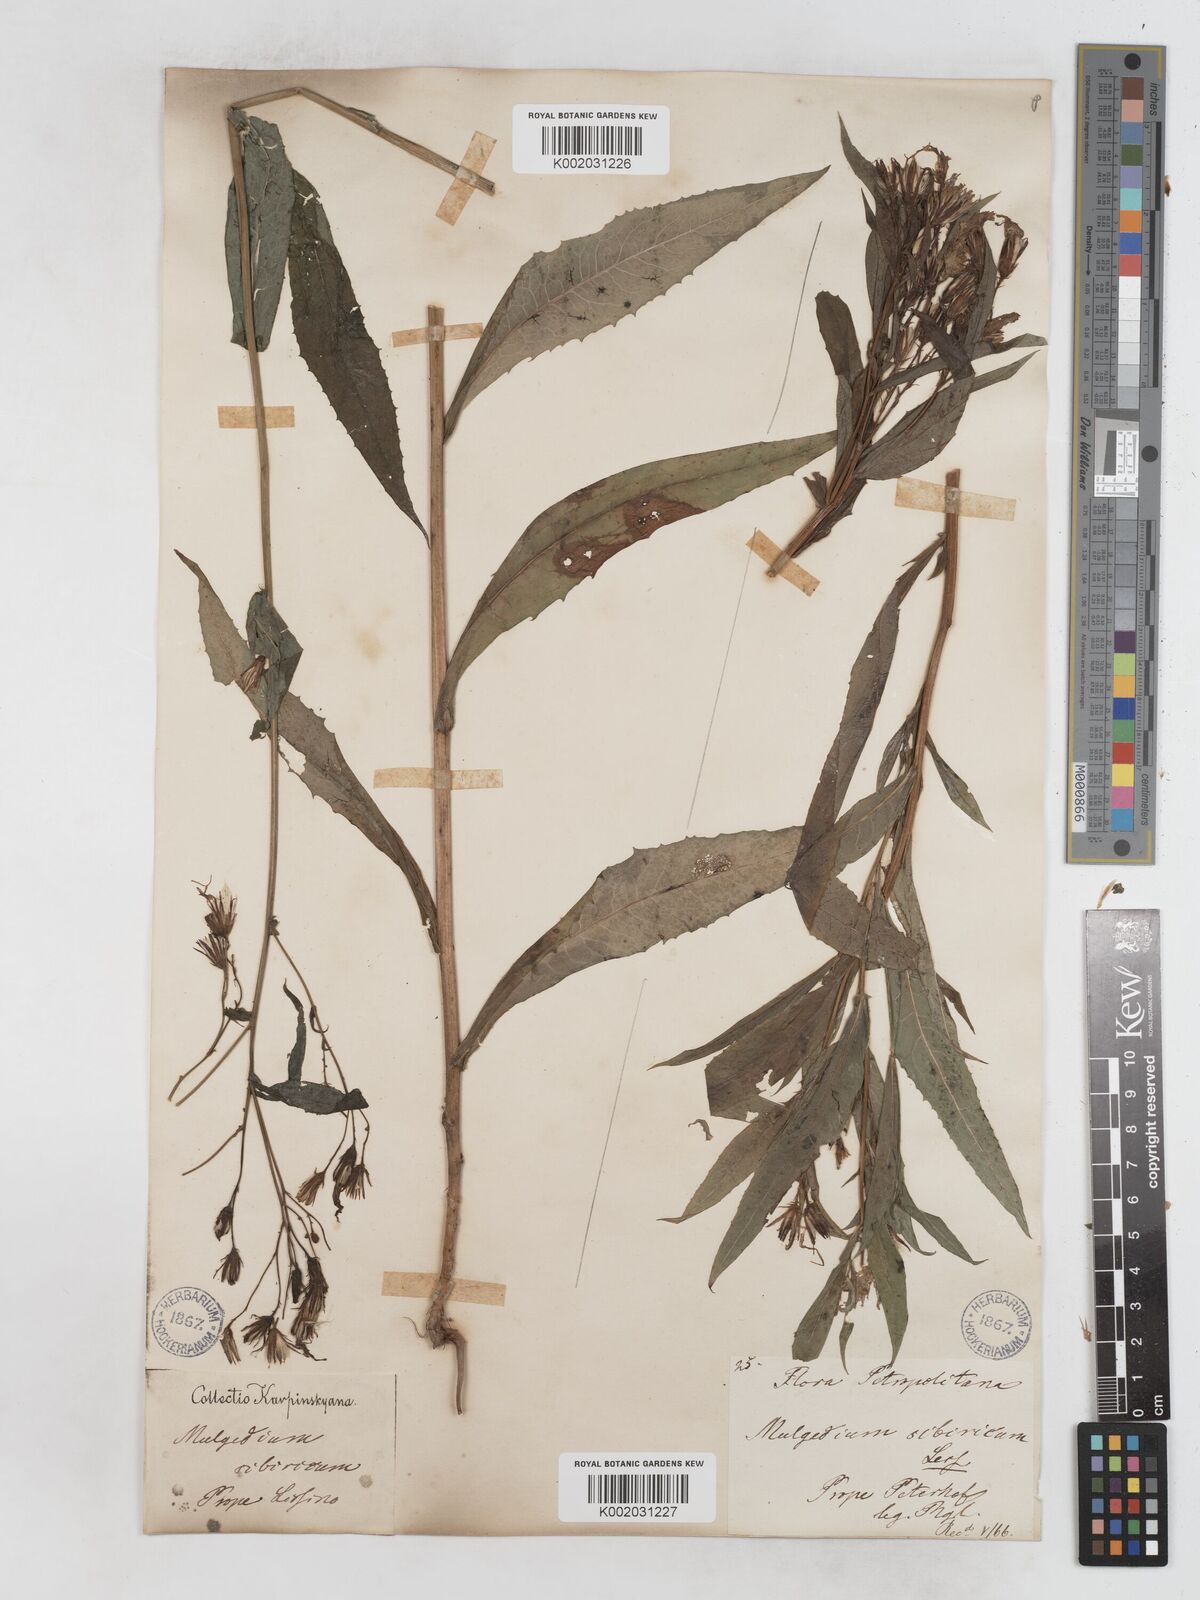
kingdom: Plantae
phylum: Tracheophyta
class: Magnoliopsida
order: Asterales
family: Asteraceae
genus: Lactuca
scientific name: Lactuca sibirica
